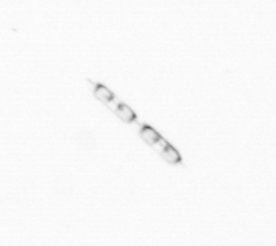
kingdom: Chromista
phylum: Ochrophyta
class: Bacillariophyceae
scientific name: Bacillariophyceae
